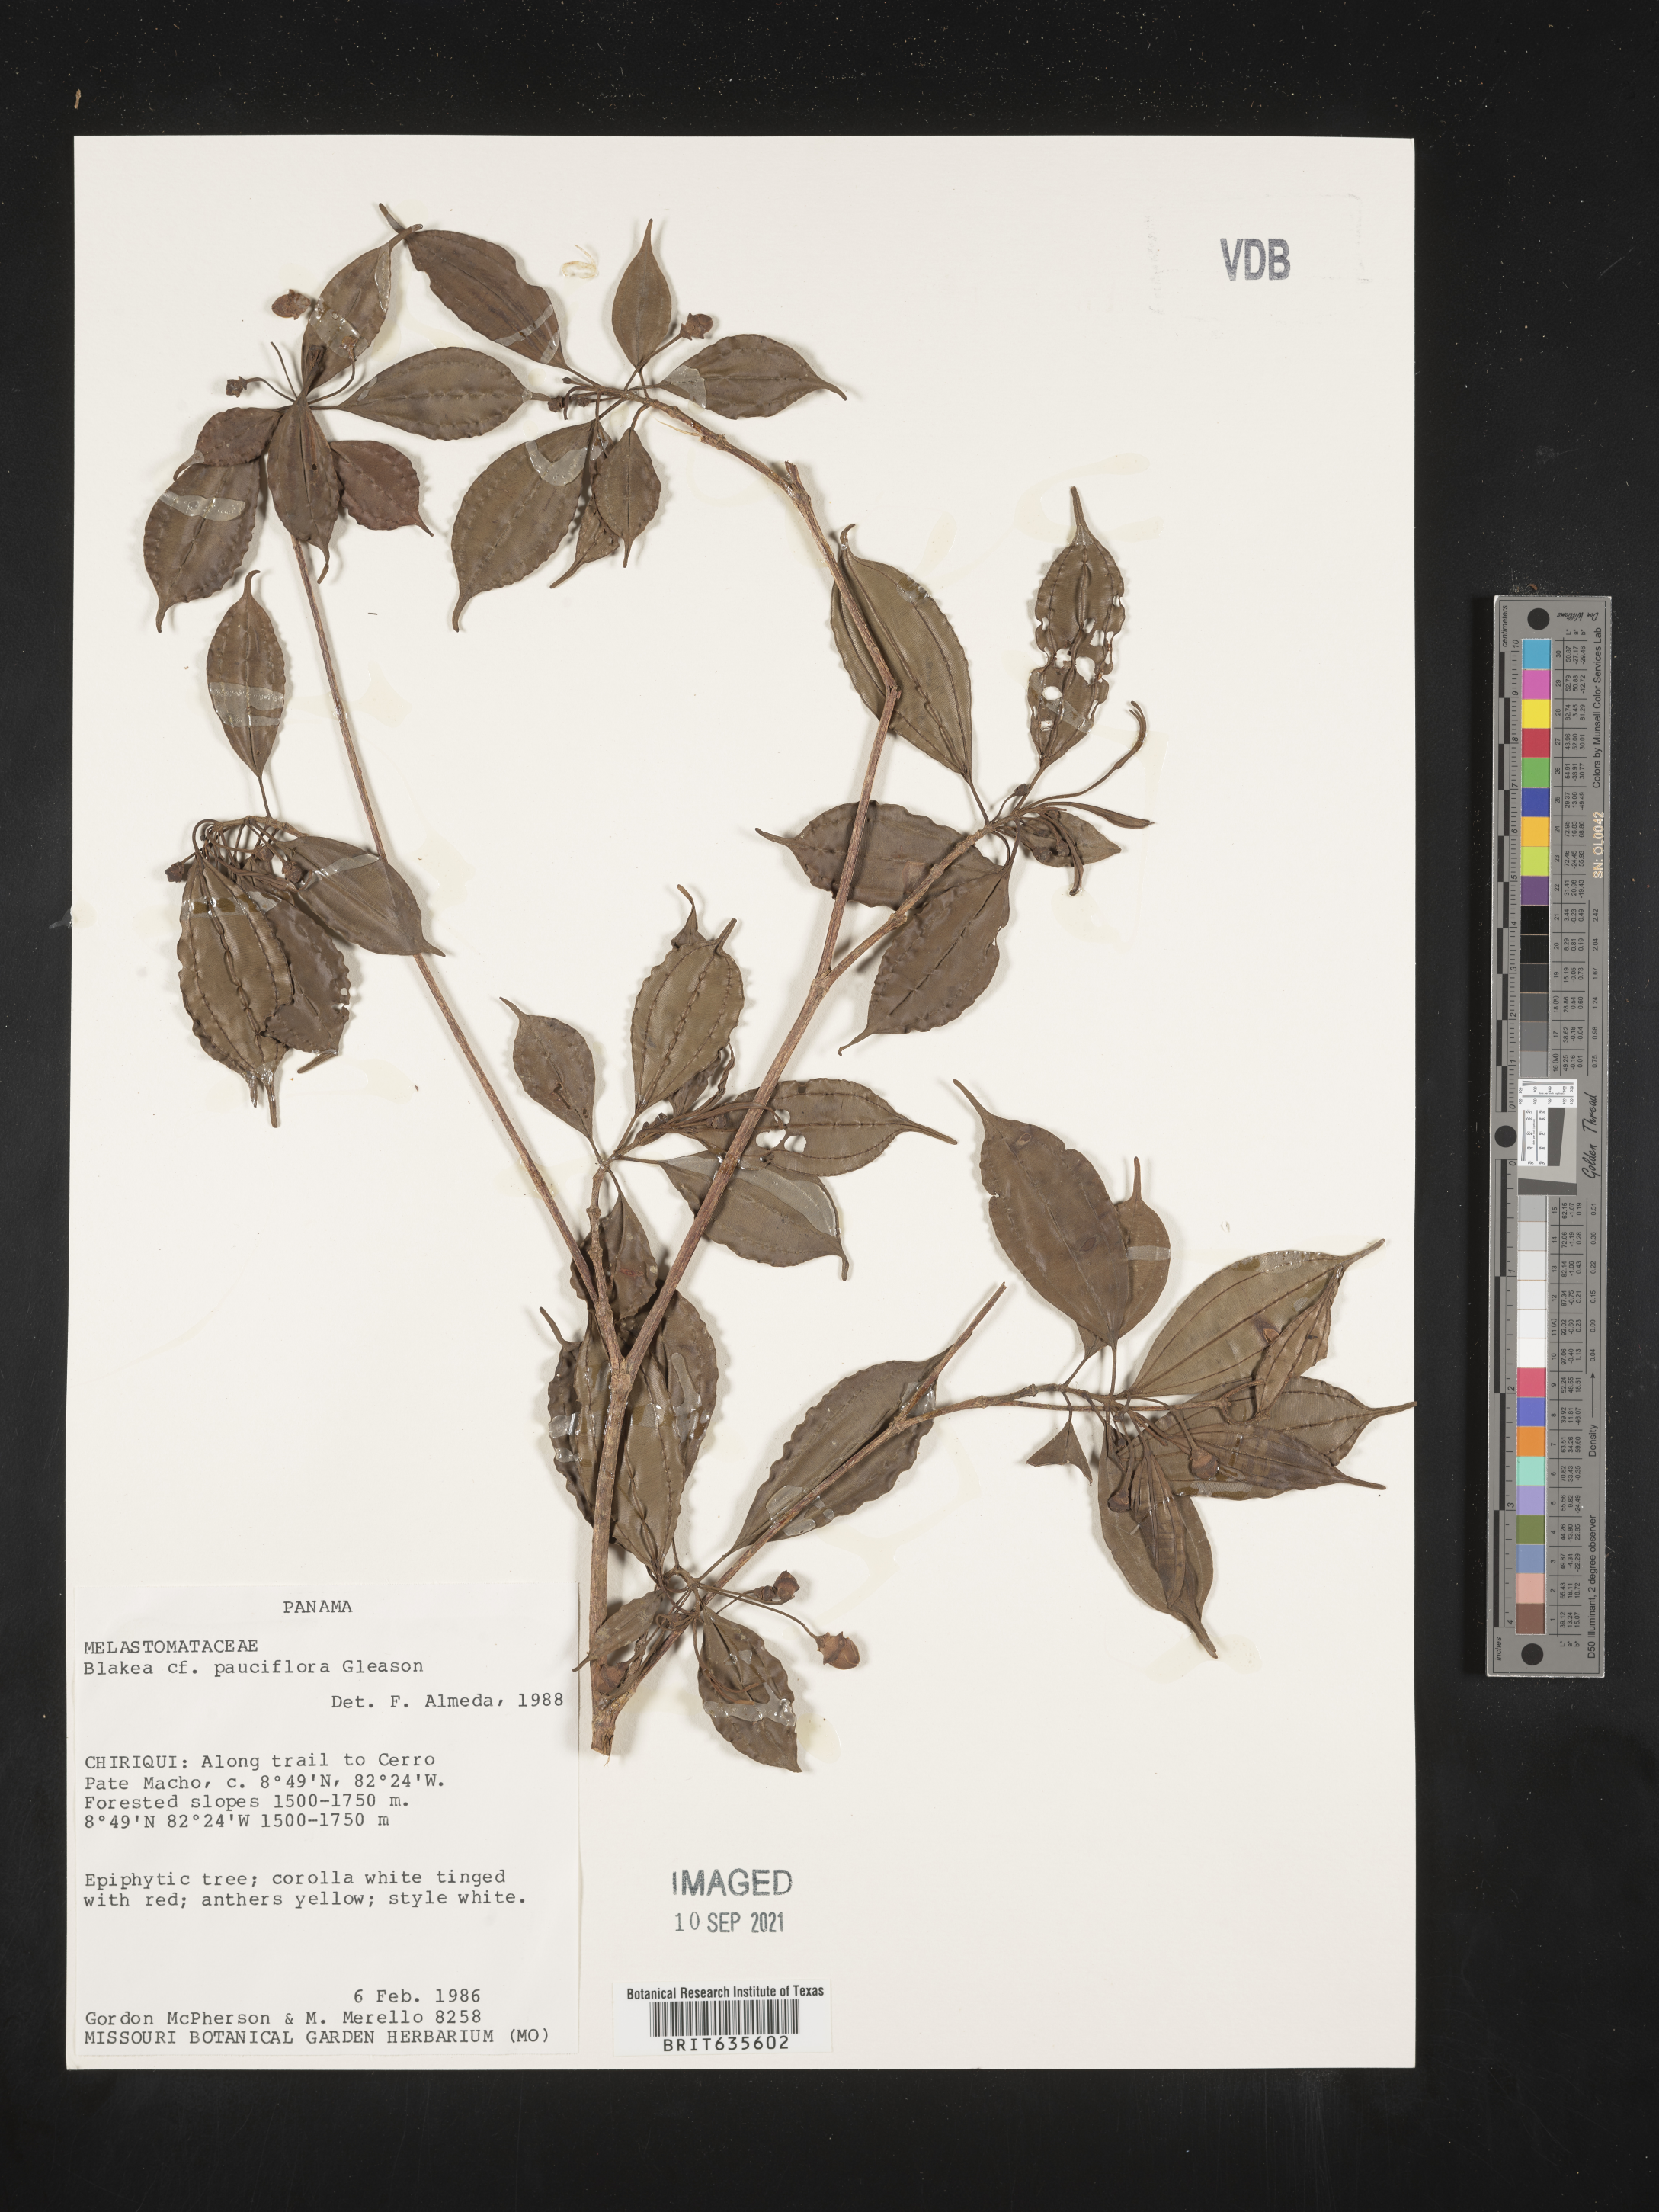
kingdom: Plantae
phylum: Tracheophyta
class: Magnoliopsida
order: Myrtales
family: Melastomataceae
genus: Blakea
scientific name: Blakea
